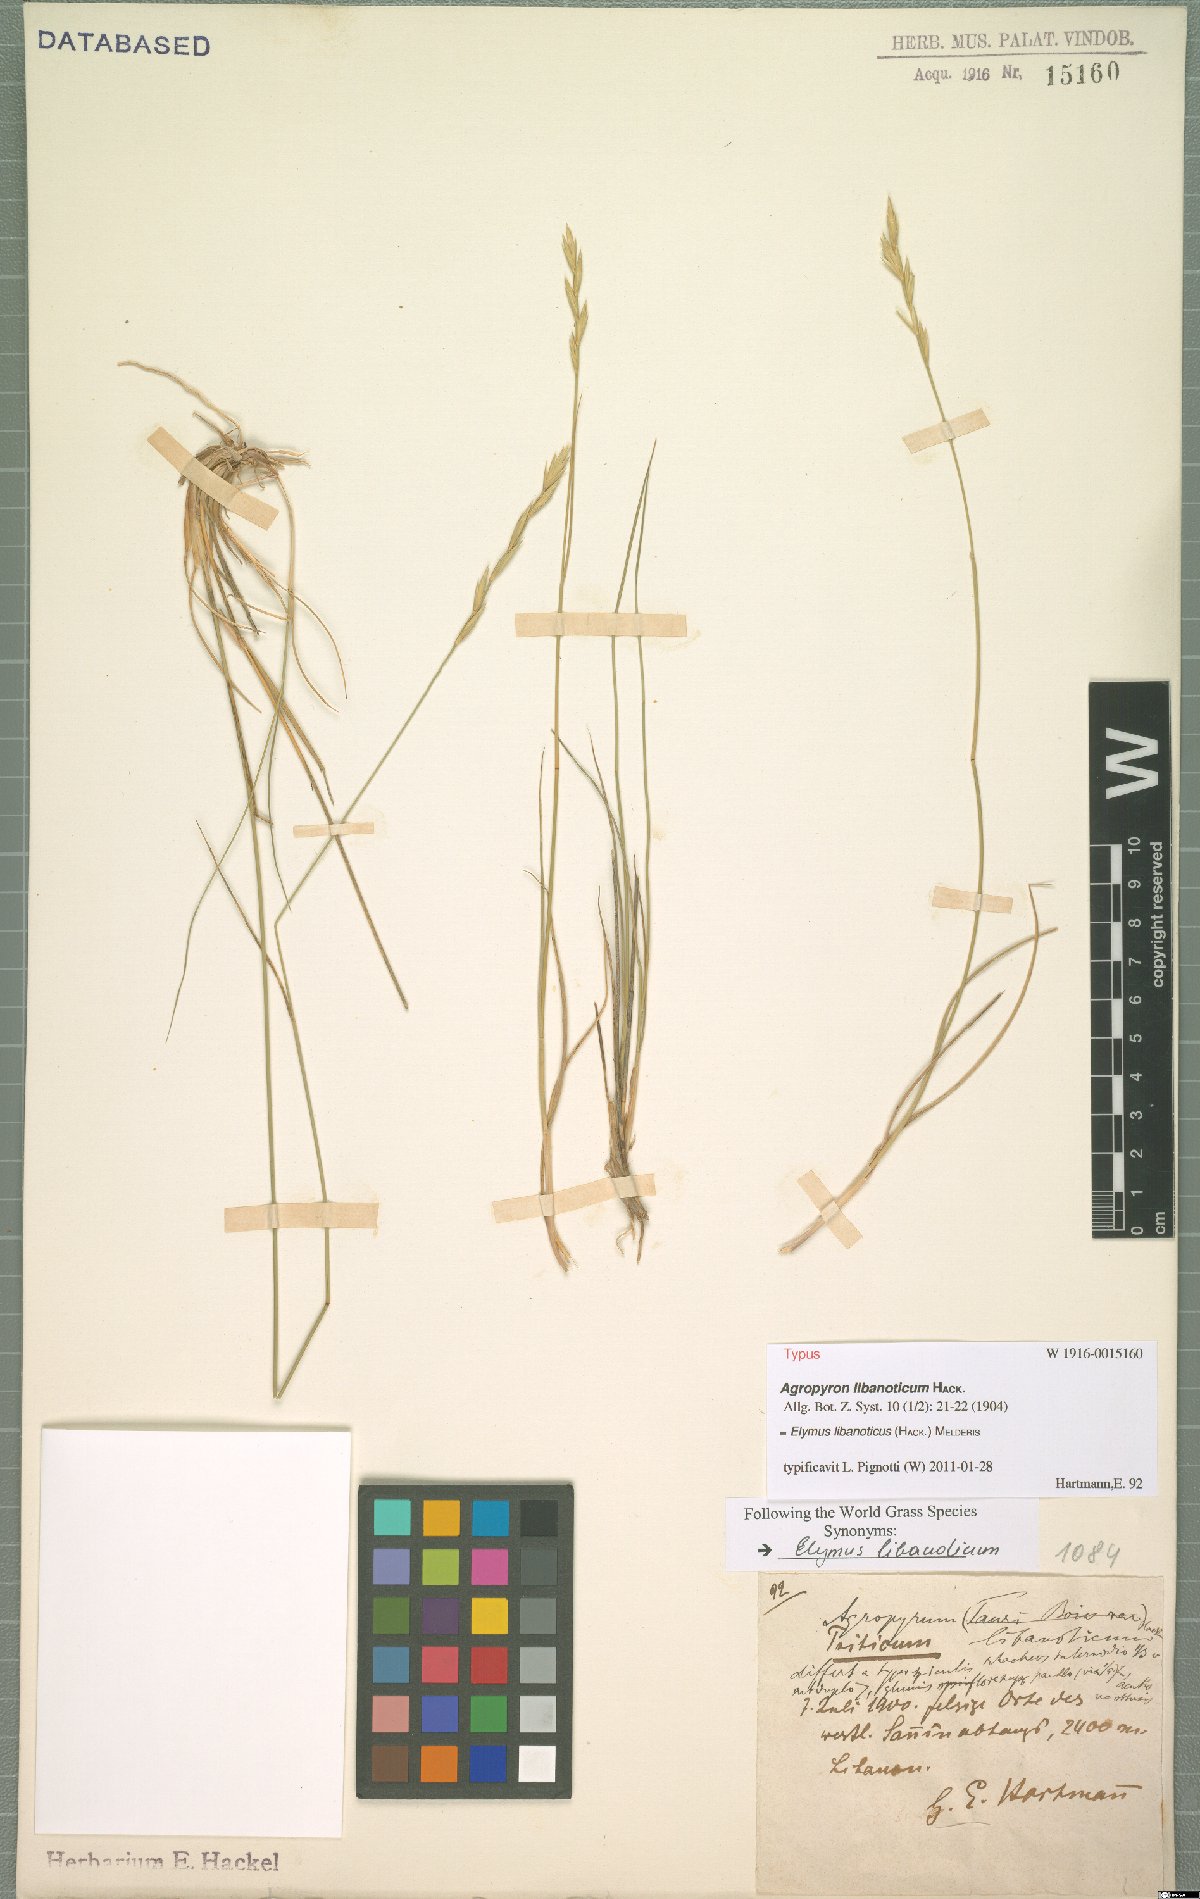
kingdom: Plantae
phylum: Tracheophyta
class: Liliopsida
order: Poales
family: Poaceae
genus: Pseudoroegneria
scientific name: Pseudoroegneria libanotica
